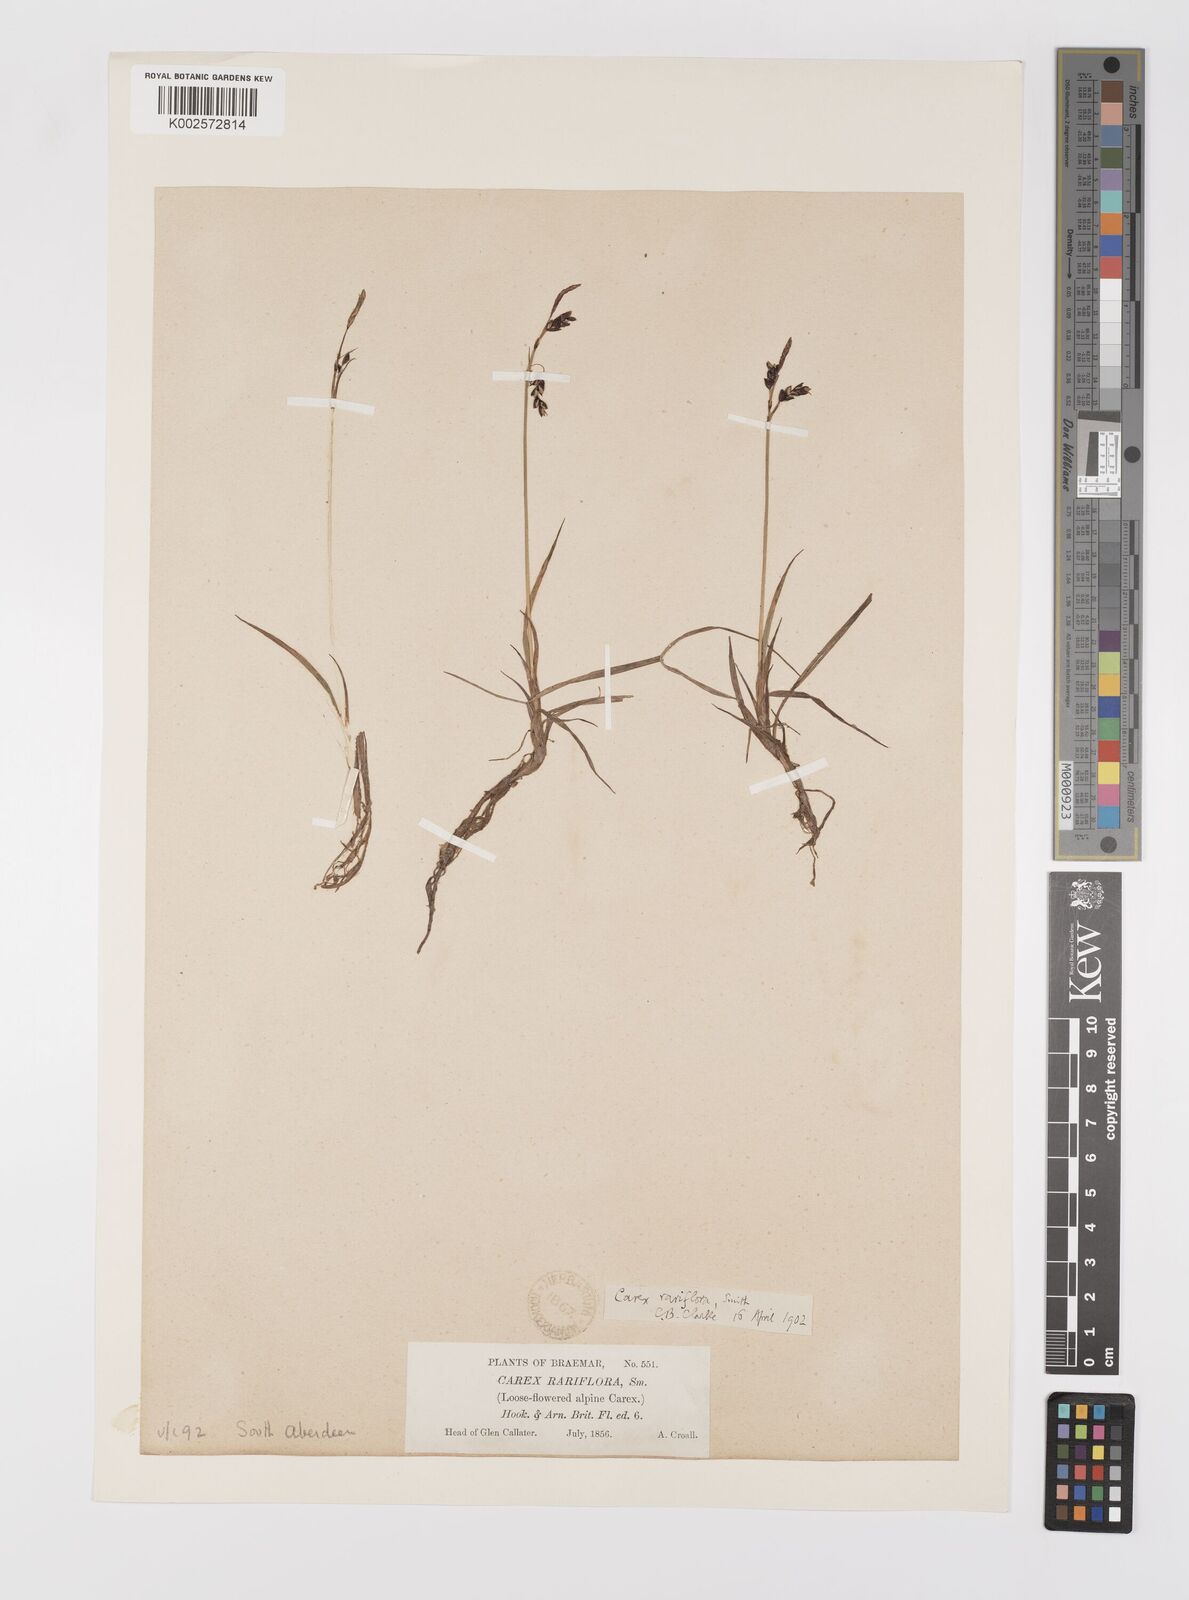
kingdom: Plantae
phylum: Tracheophyta
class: Liliopsida
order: Poales
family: Cyperaceae
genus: Carex
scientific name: Carex rariflora
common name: Loose-flowered alpine sedge
